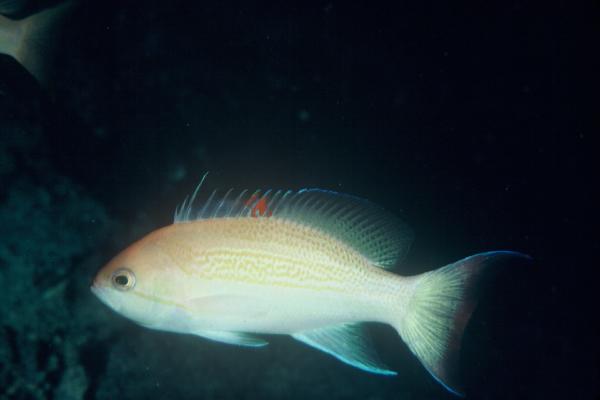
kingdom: Animalia
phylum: Chordata
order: Perciformes
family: Serranidae
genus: Pseudanthias
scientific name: Pseudanthias luzonensis
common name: Luzon basslet
